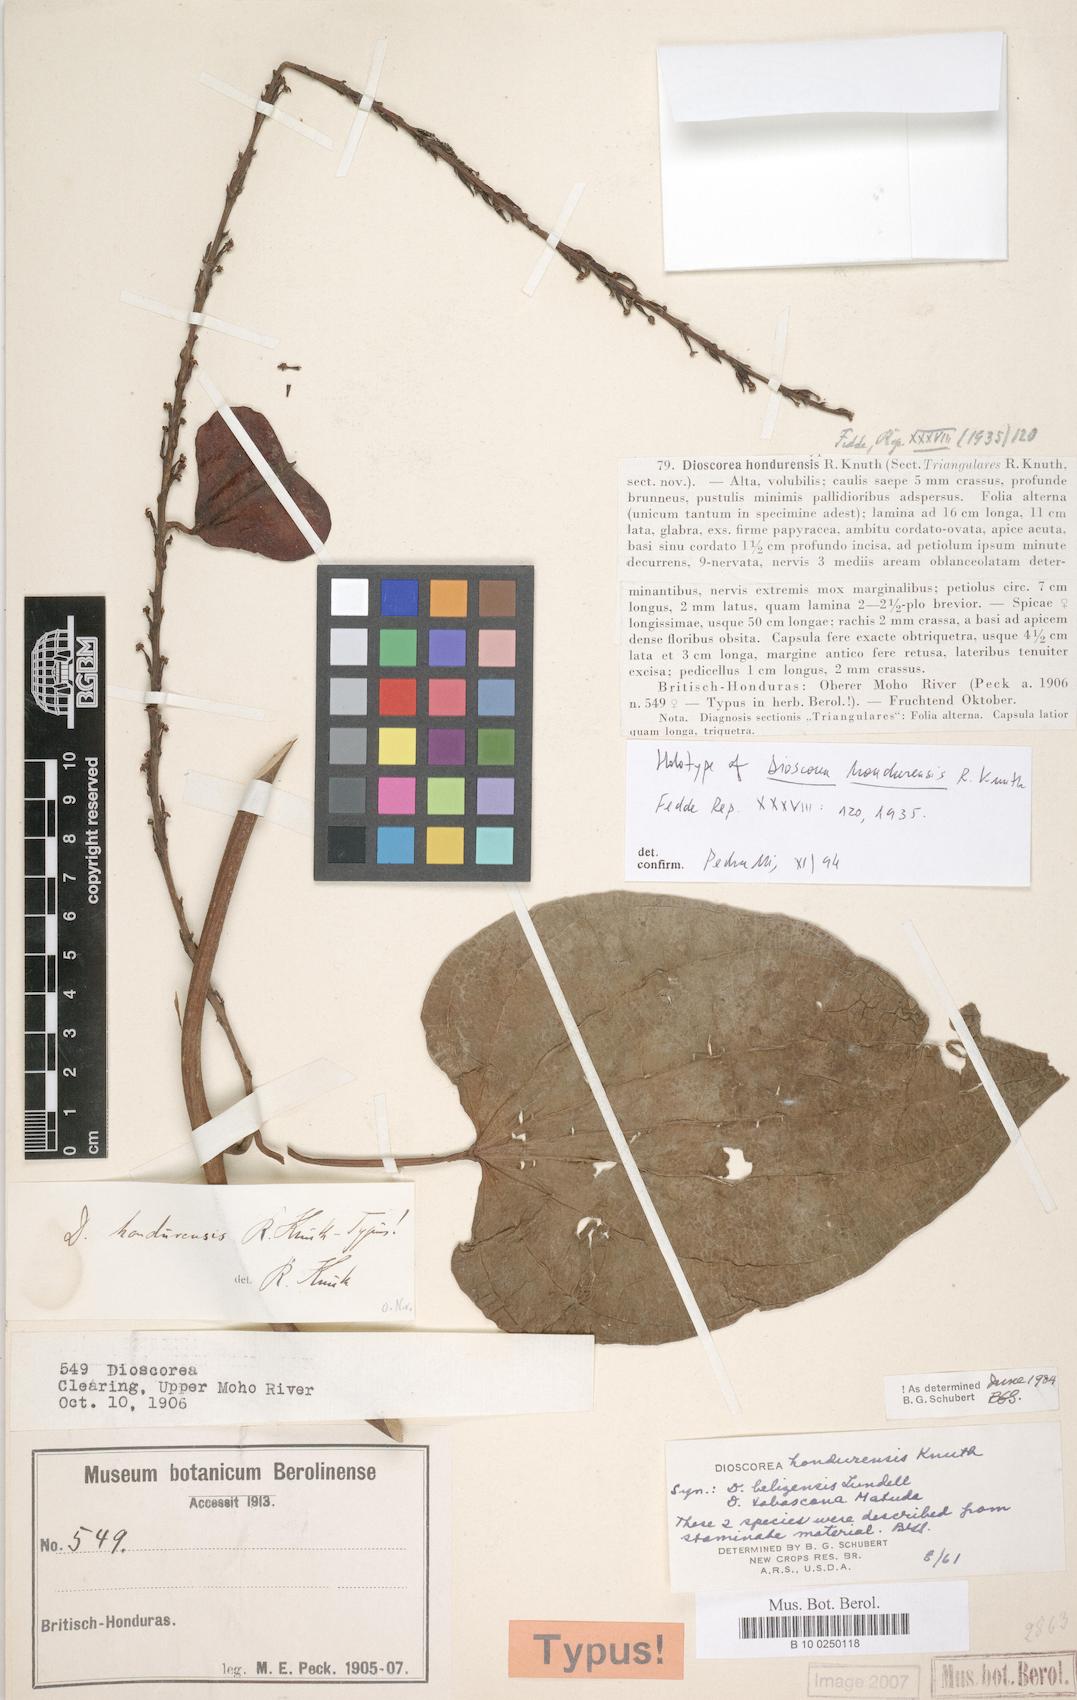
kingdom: Plantae
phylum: Tracheophyta
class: Liliopsida
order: Dioscoreales
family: Dioscoreaceae
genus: Dioscorea
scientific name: Dioscorea hondurensis
